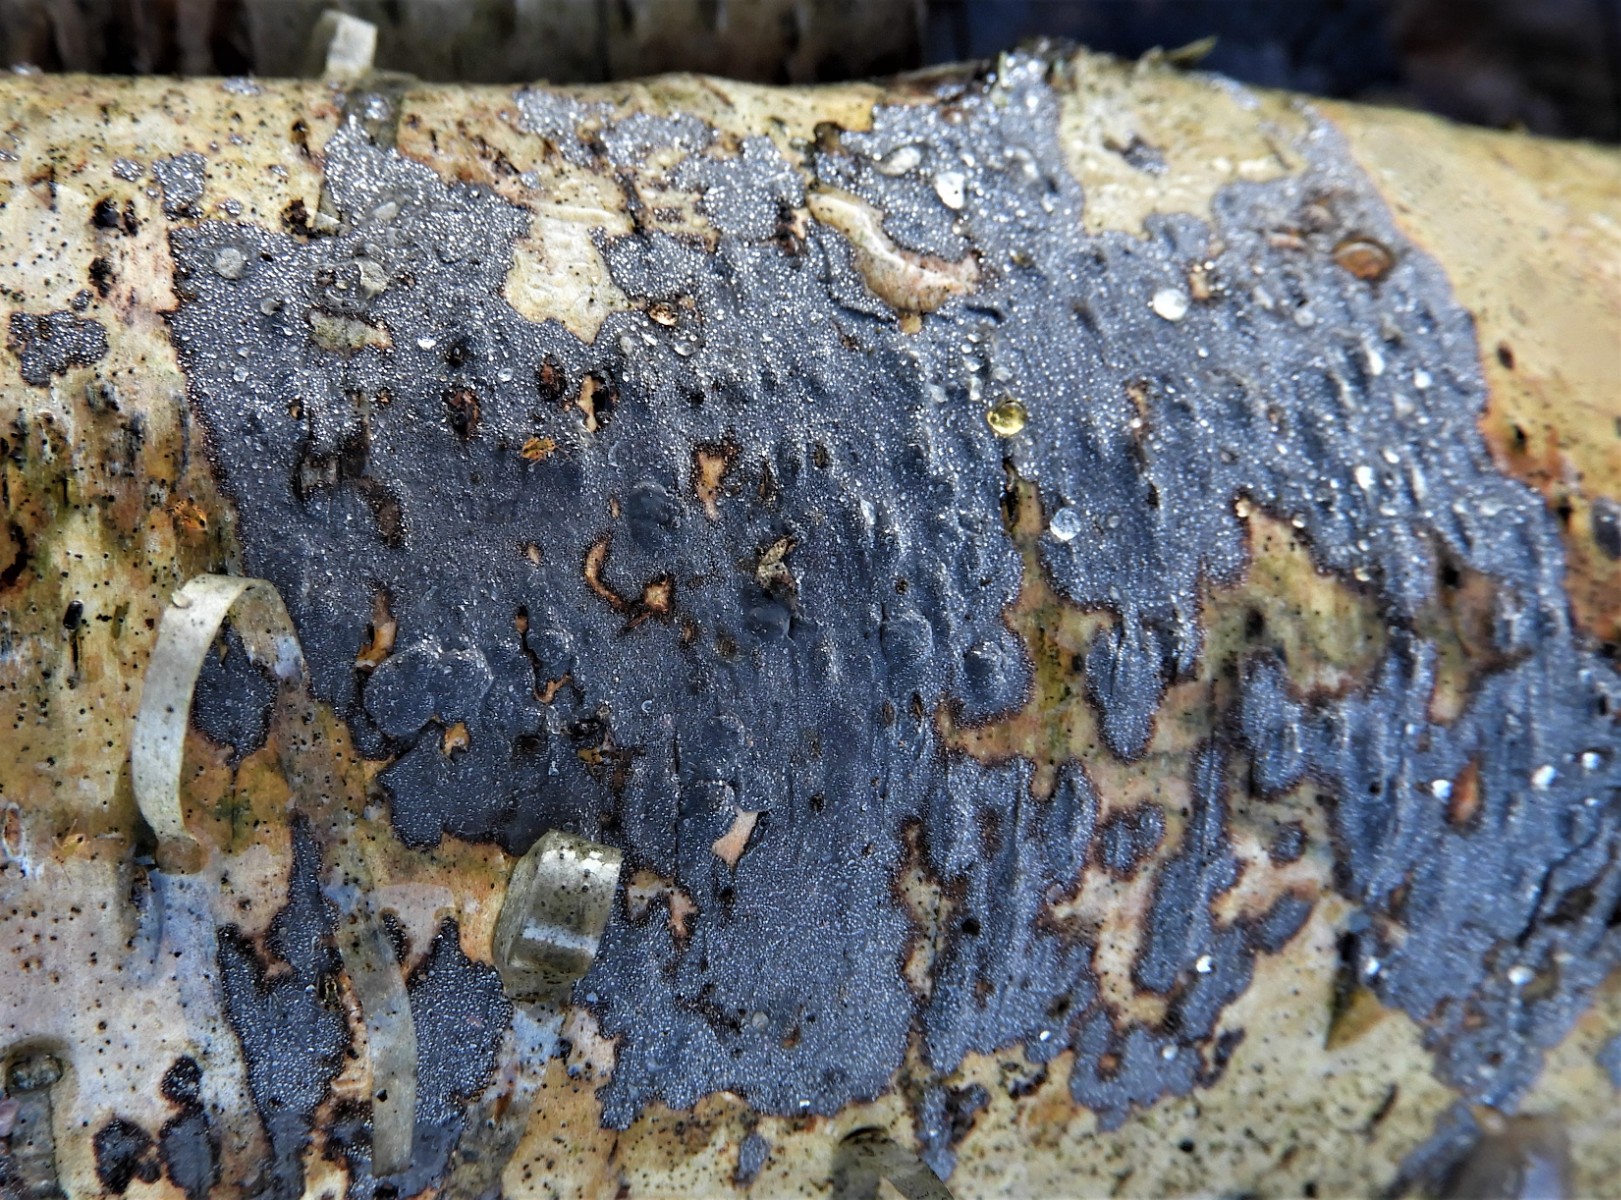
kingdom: Fungi
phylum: Basidiomycota
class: Agaricomycetes
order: Russulales
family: Peniophoraceae
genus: Peniophora
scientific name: Peniophora
